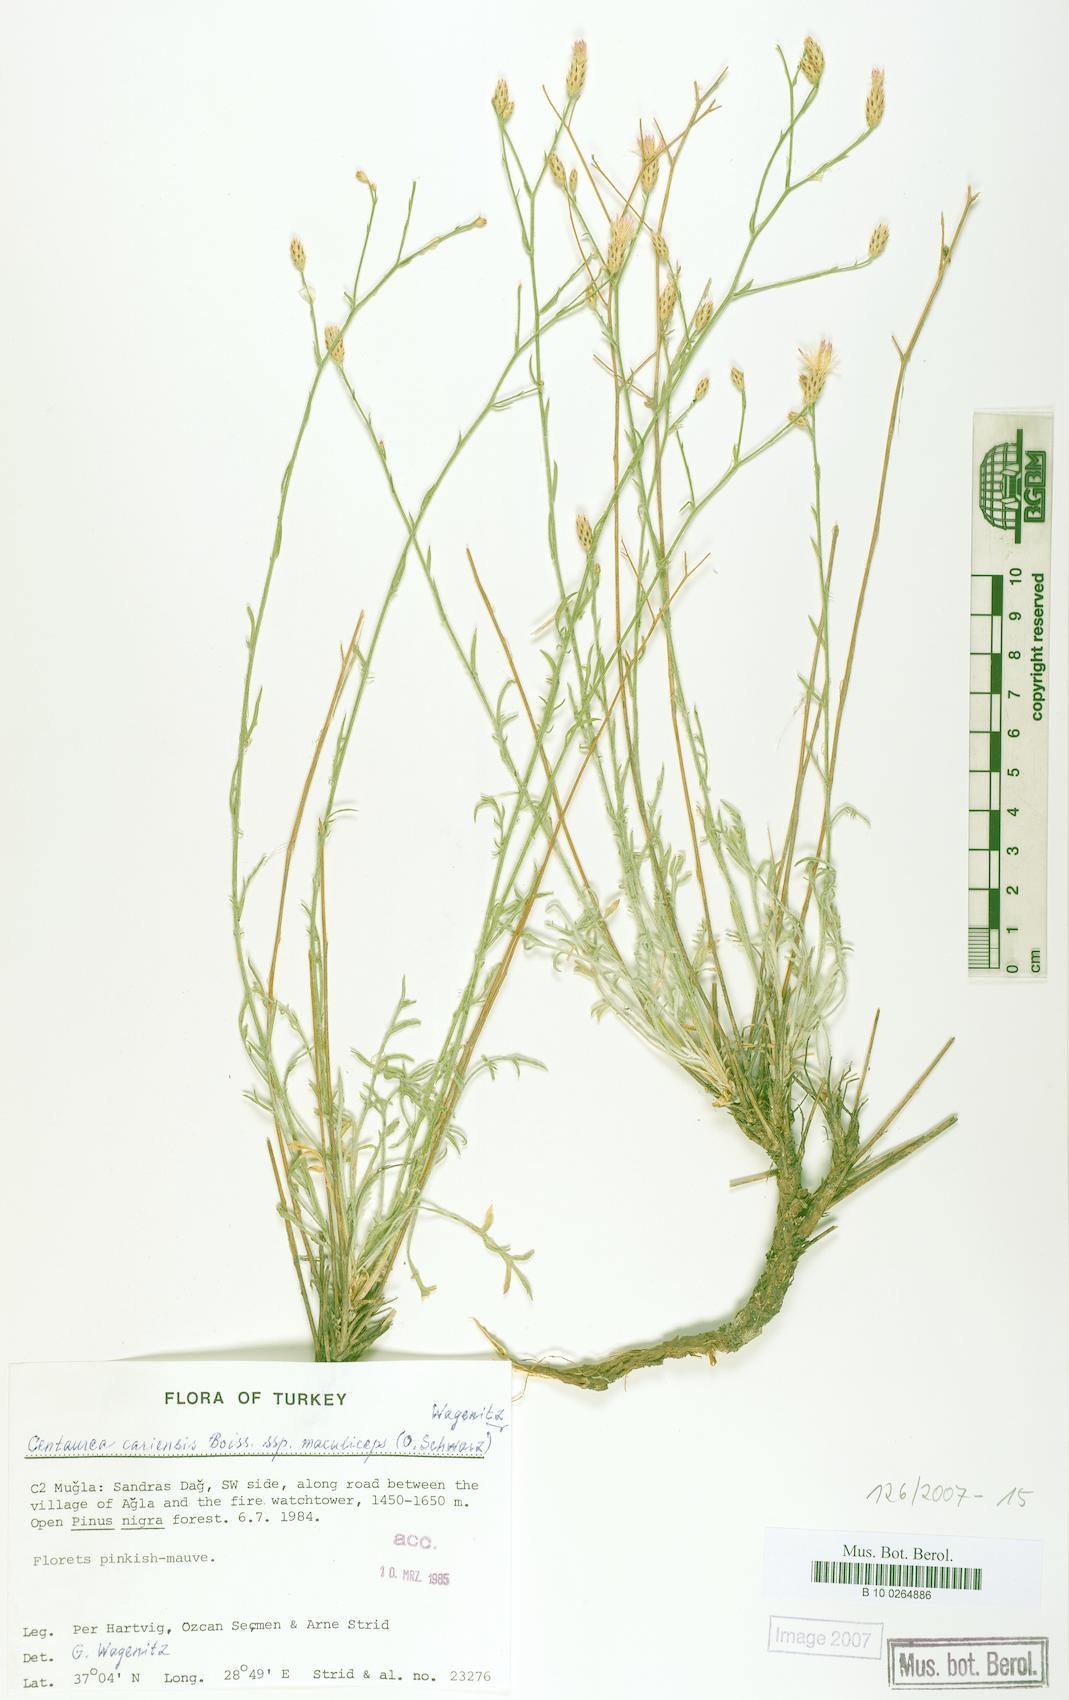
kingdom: Plantae
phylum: Tracheophyta
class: Magnoliopsida
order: Asterales
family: Asteraceae
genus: Centaurea
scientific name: Centaurea cariensis
